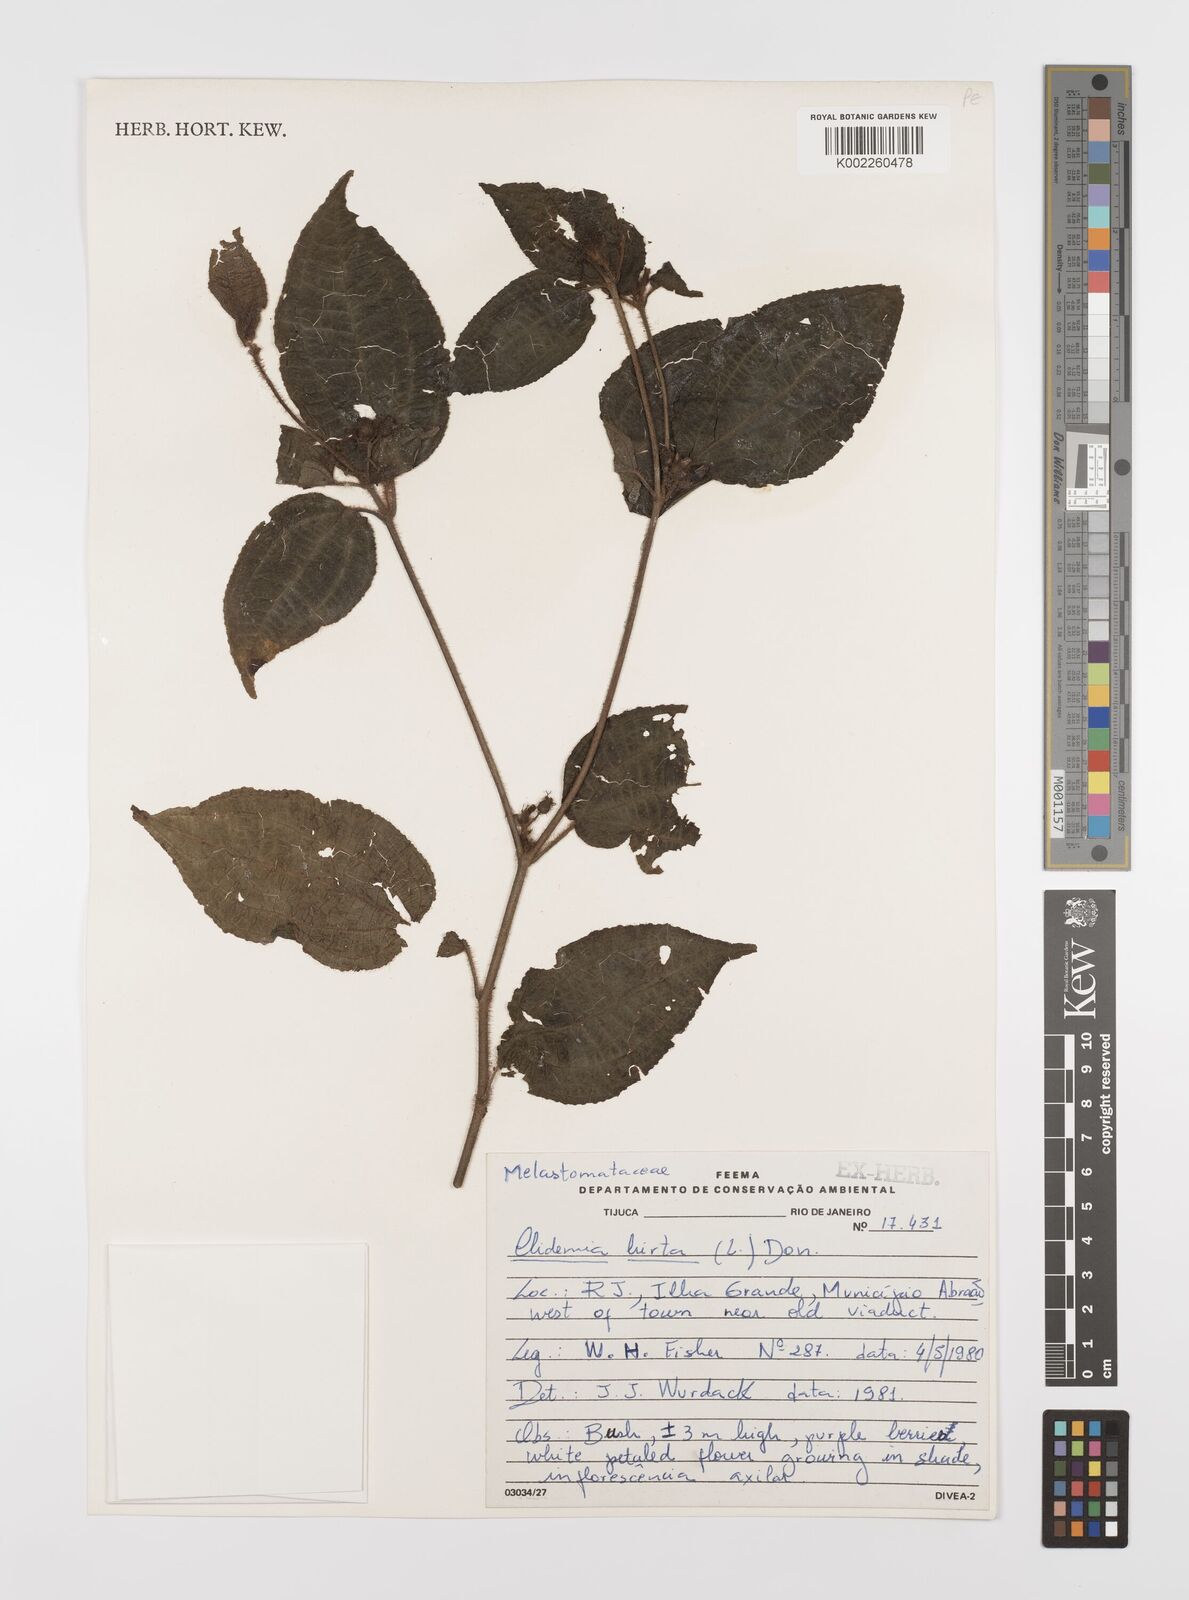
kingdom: Plantae
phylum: Tracheophyta
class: Magnoliopsida
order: Myrtales
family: Melastomataceae
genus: Miconia
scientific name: Miconia crenata
